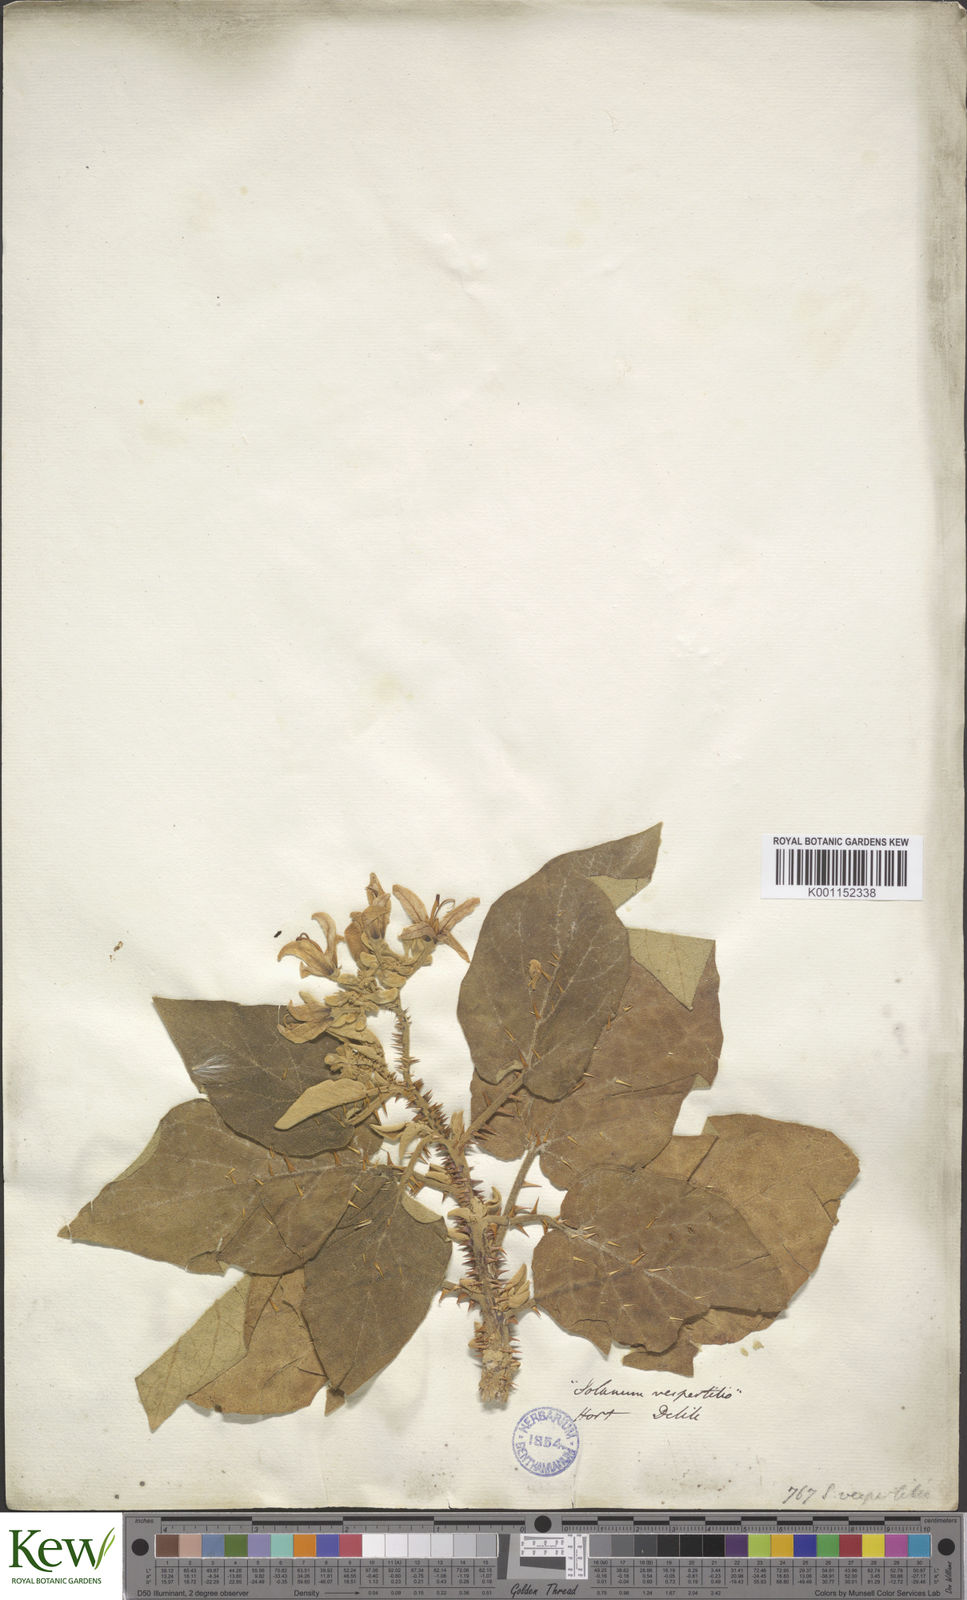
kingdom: Plantae
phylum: Tracheophyta
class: Magnoliopsida
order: Solanales
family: Solanaceae
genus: Solanum
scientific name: Solanum vespertilio
